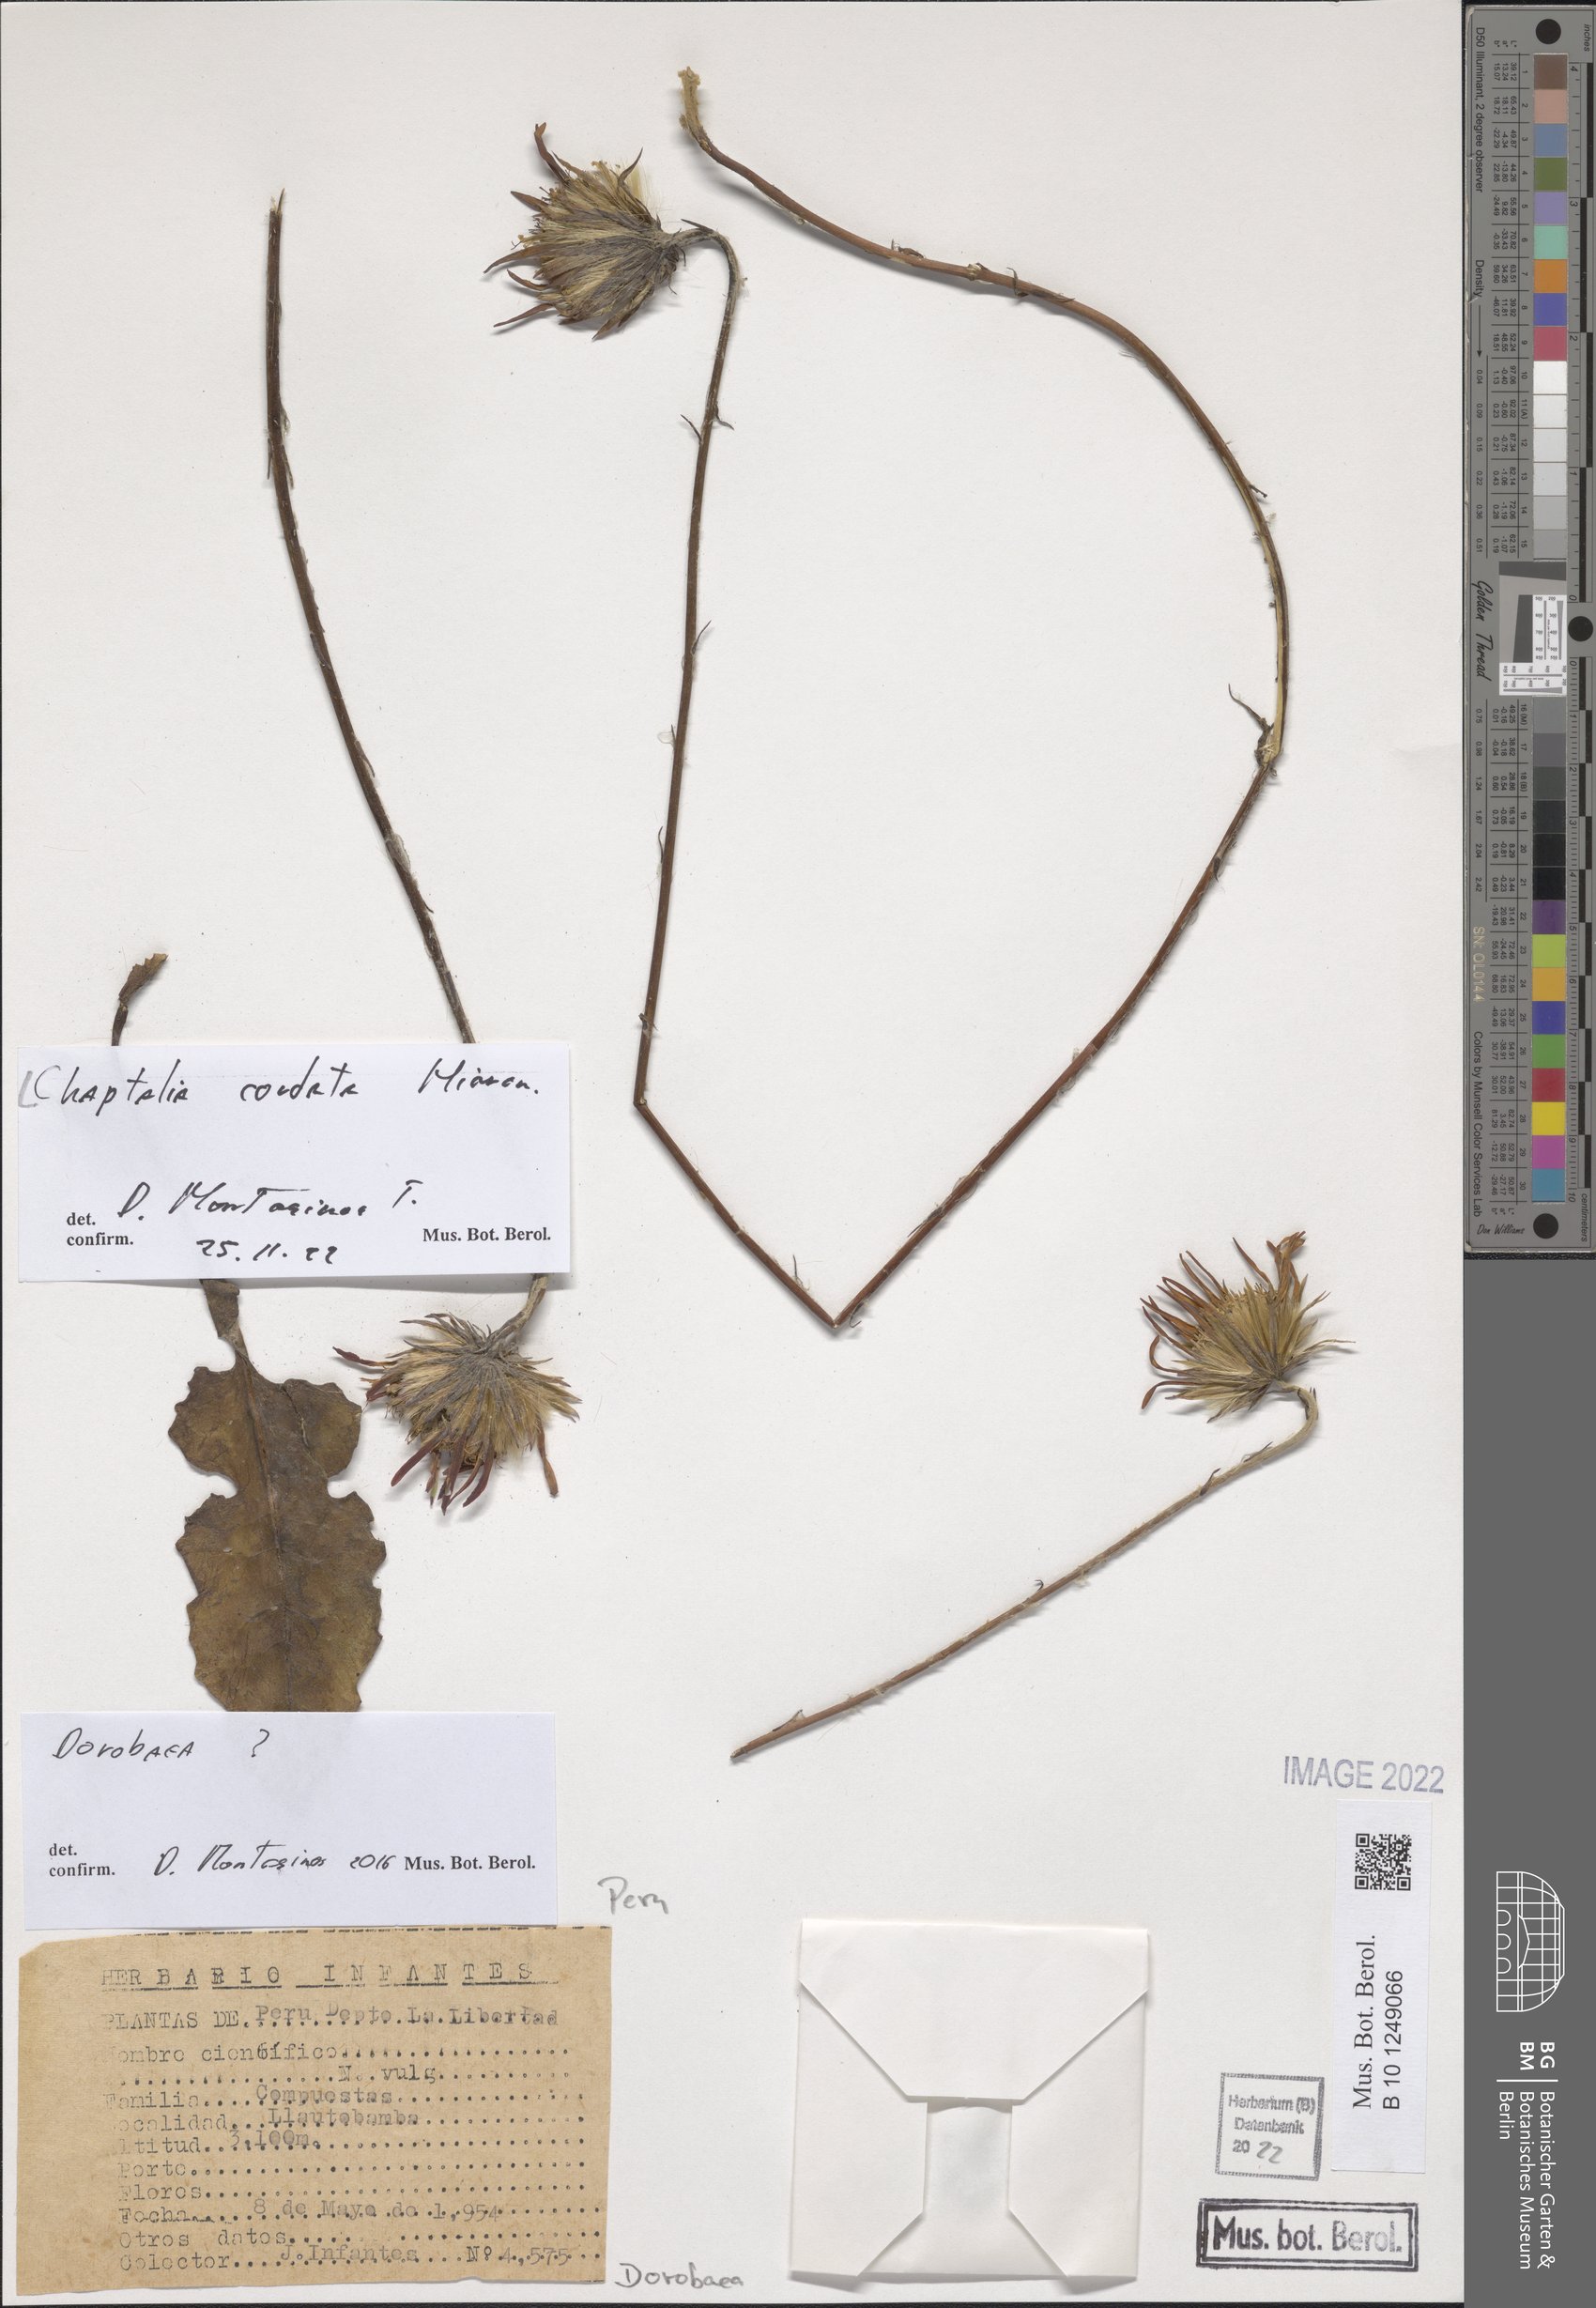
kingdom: Plantae
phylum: Tracheophyta
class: Magnoliopsida
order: Asterales
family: Asteraceae
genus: Chaptalia
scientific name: Chaptalia cordata
